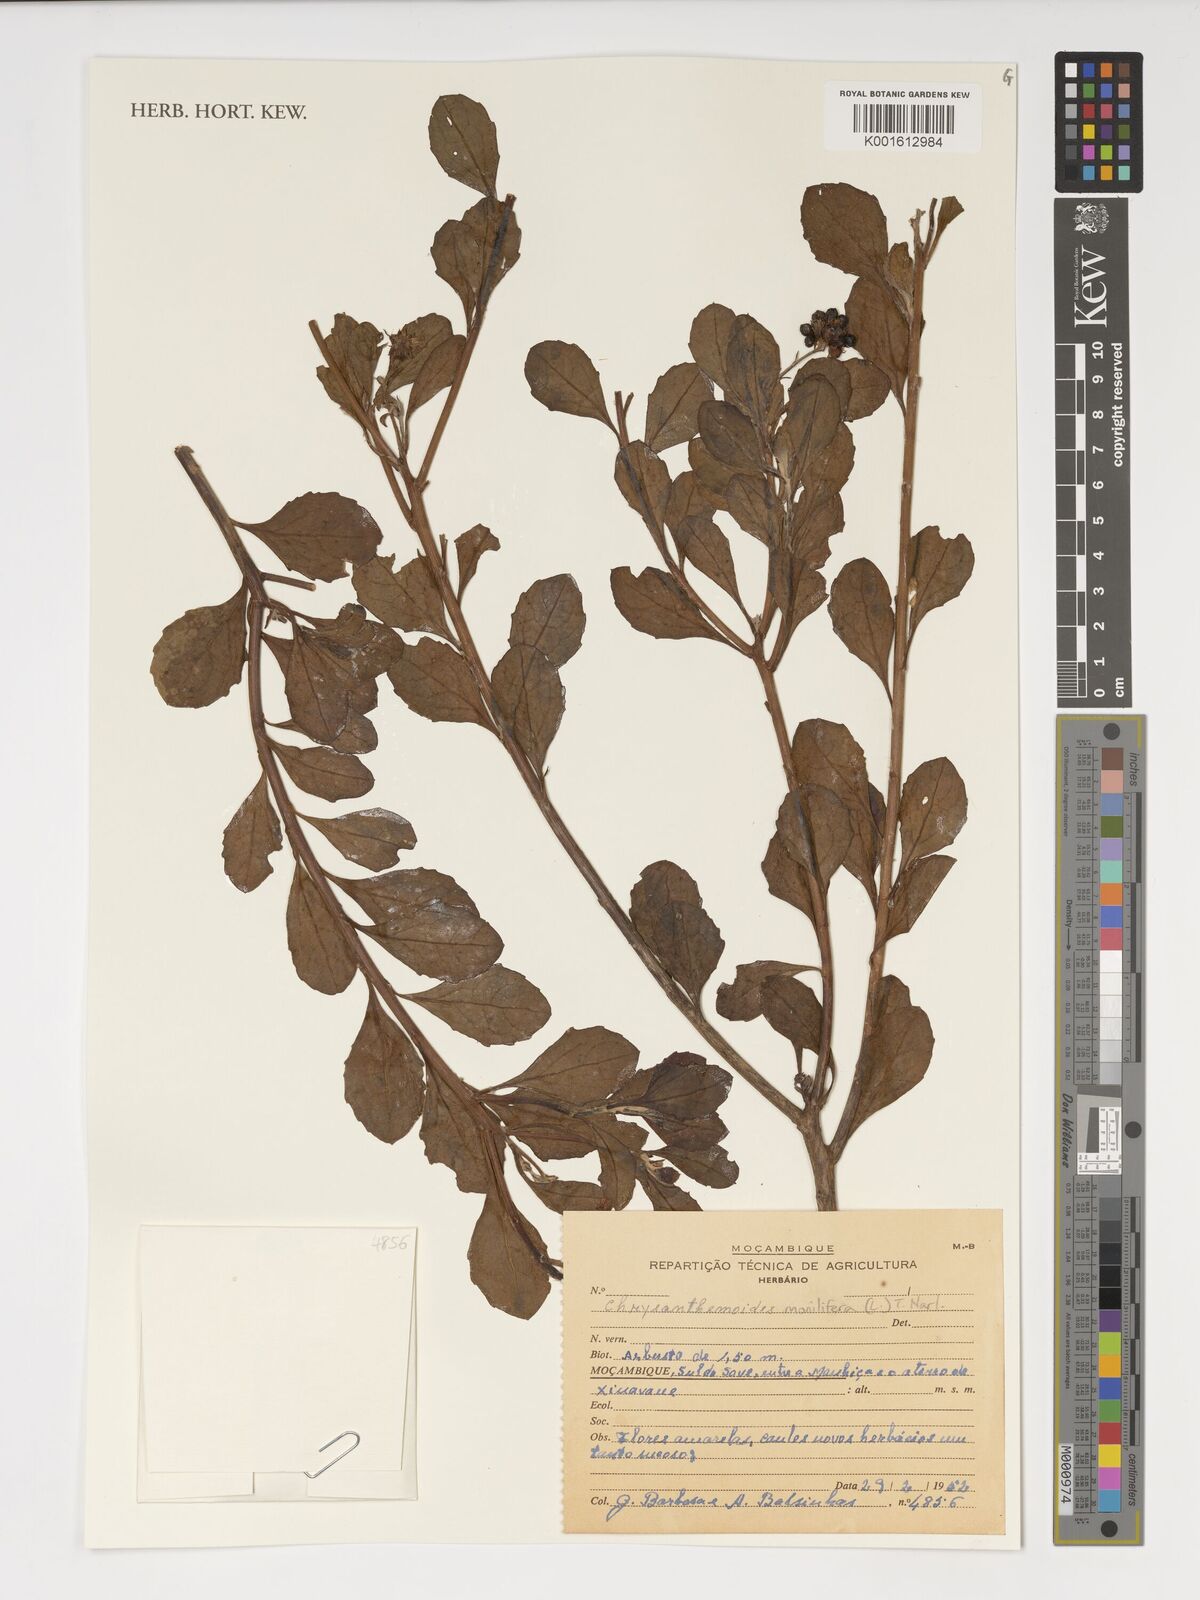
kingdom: Plantae
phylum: Tracheophyta
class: Magnoliopsida
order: Asterales
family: Asteraceae
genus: Osteospermum
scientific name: Osteospermum moniliferum
